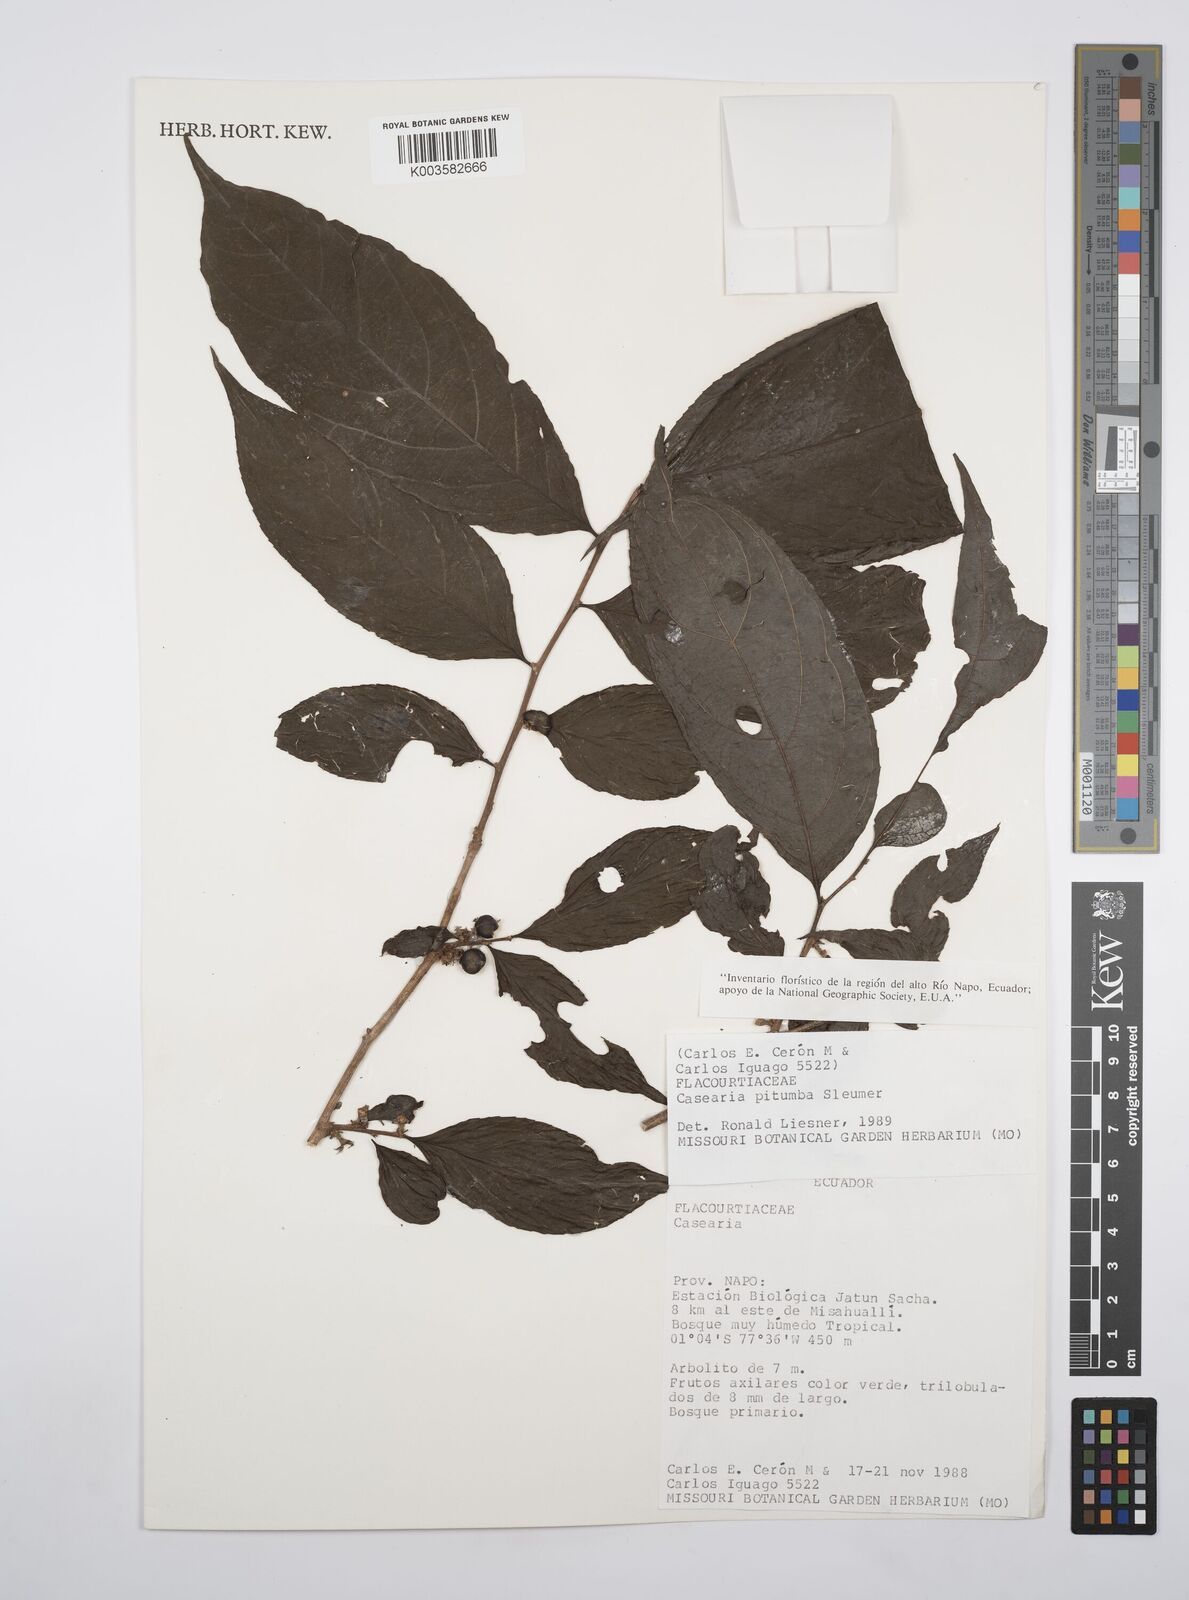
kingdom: Plantae
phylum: Tracheophyta
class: Magnoliopsida
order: Malpighiales
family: Salicaceae
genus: Casearia
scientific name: Casearia pitumba
